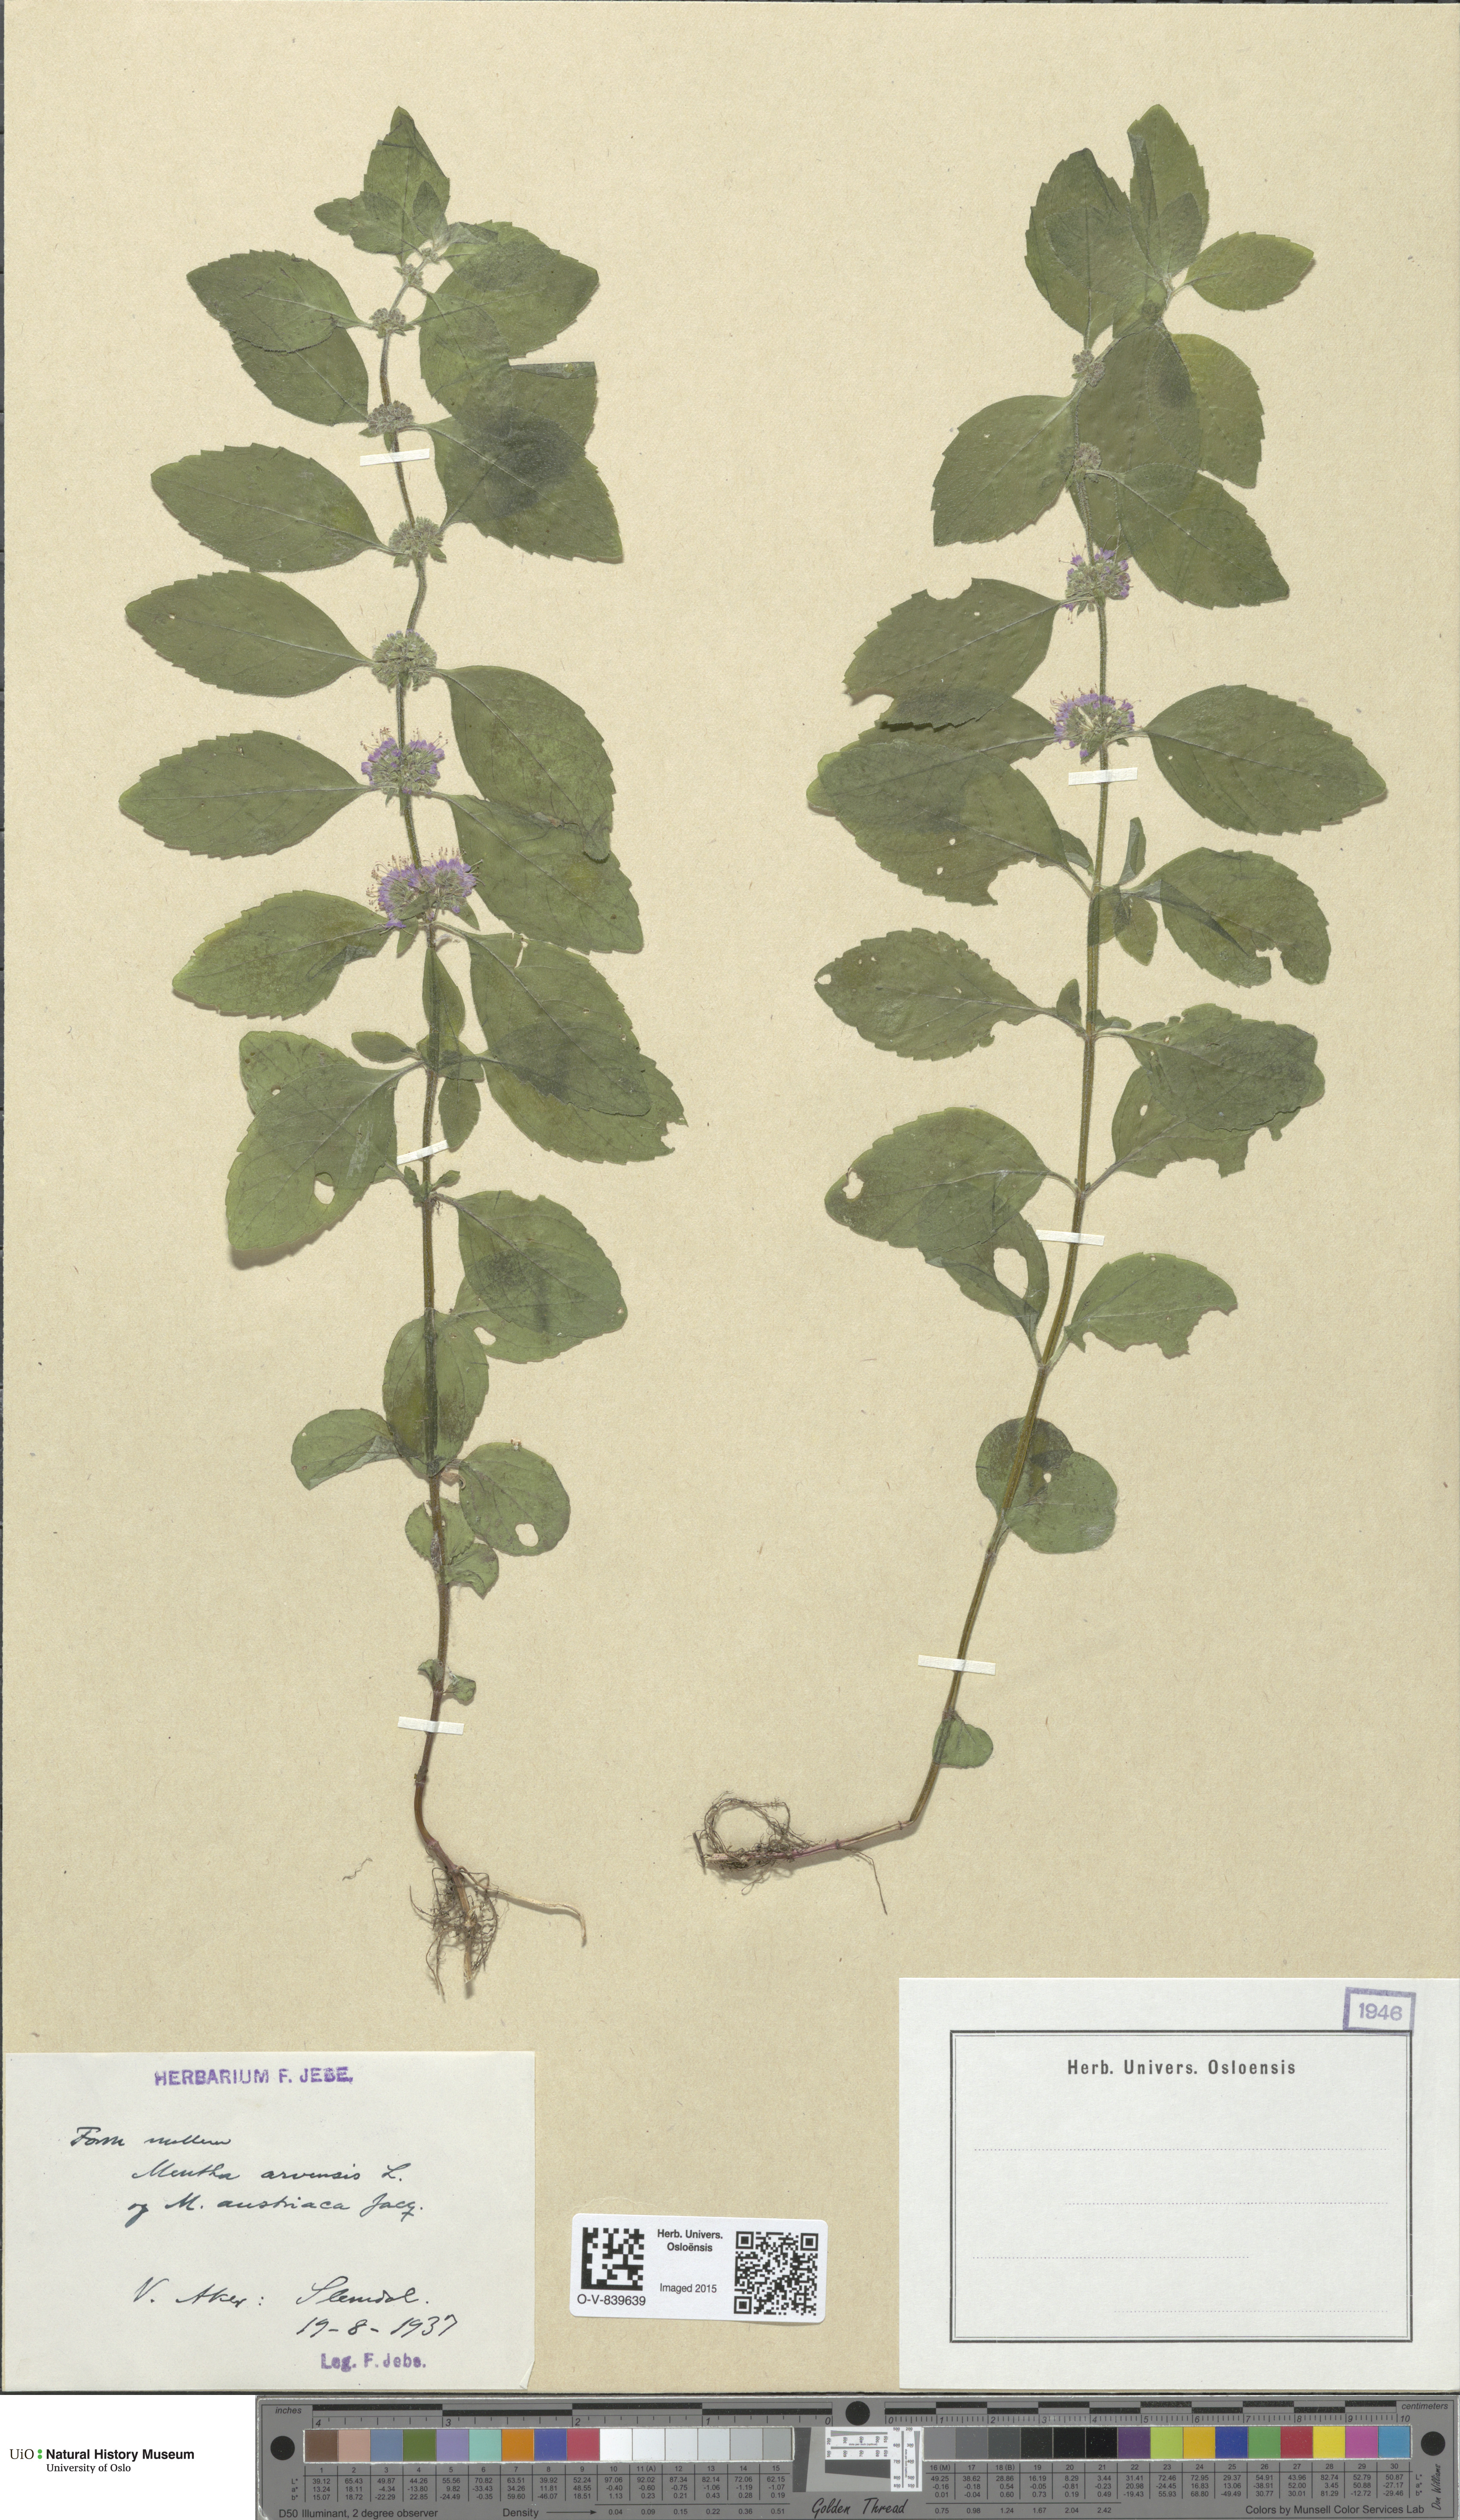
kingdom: Plantae
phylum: Tracheophyta
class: Magnoliopsida
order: Lamiales
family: Lamiaceae
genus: Mentha
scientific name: Mentha arvensis
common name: Corn mint
